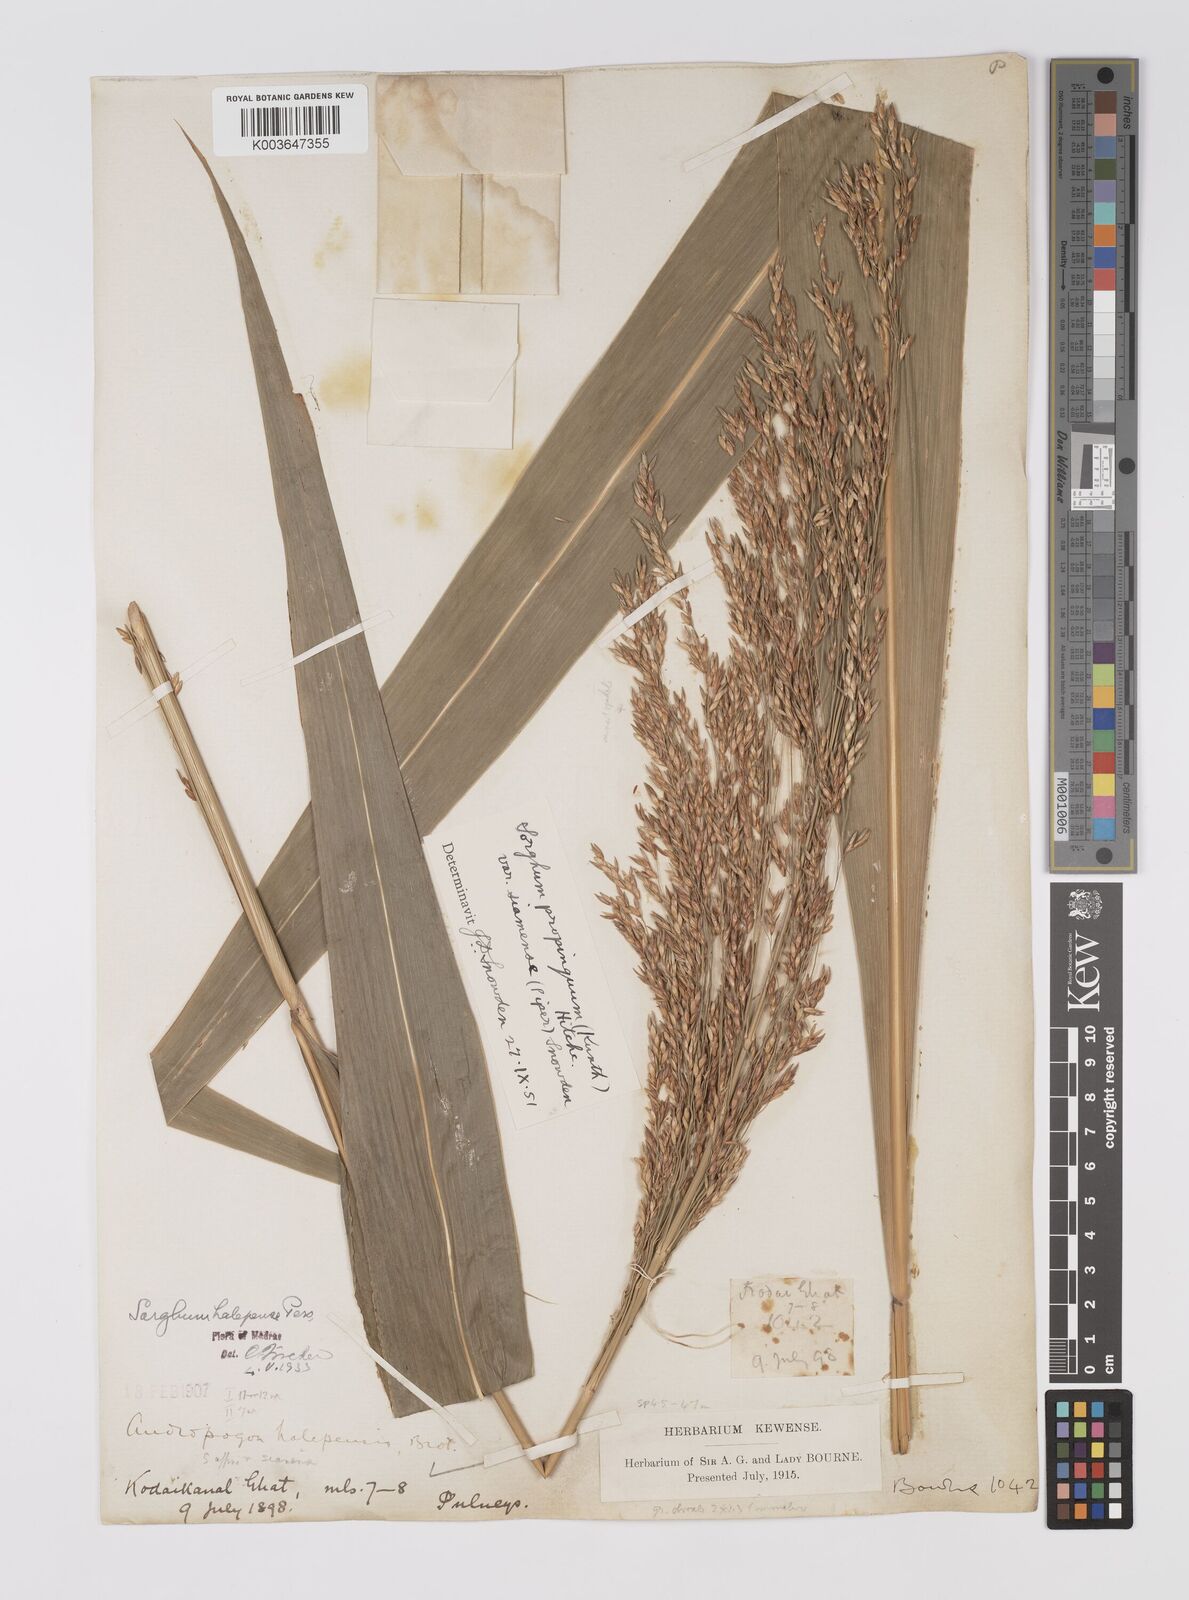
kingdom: Plantae
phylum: Tracheophyta
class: Liliopsida
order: Poales
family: Poaceae
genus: Sorghum
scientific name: Sorghum propinquum
